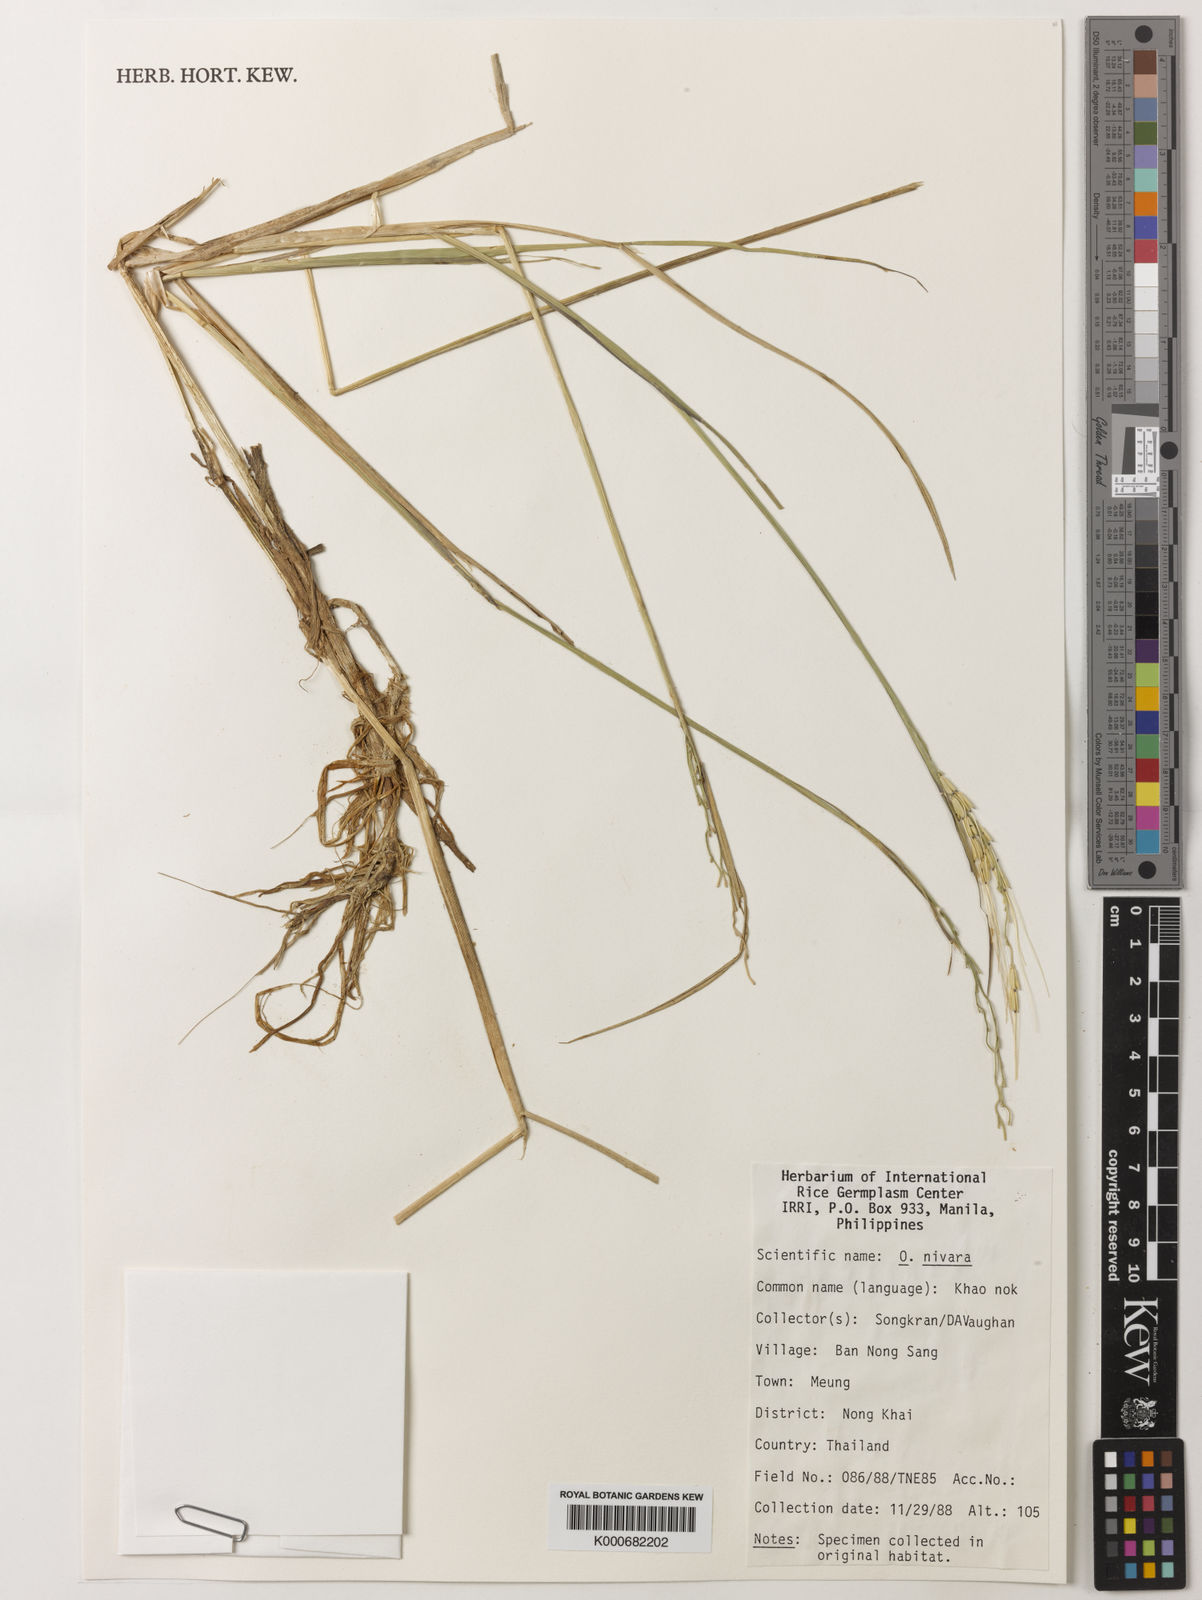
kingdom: Plantae
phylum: Tracheophyta
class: Liliopsida
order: Poales
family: Poaceae
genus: Oryza
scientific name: Oryza rufipogon
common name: Red rice
